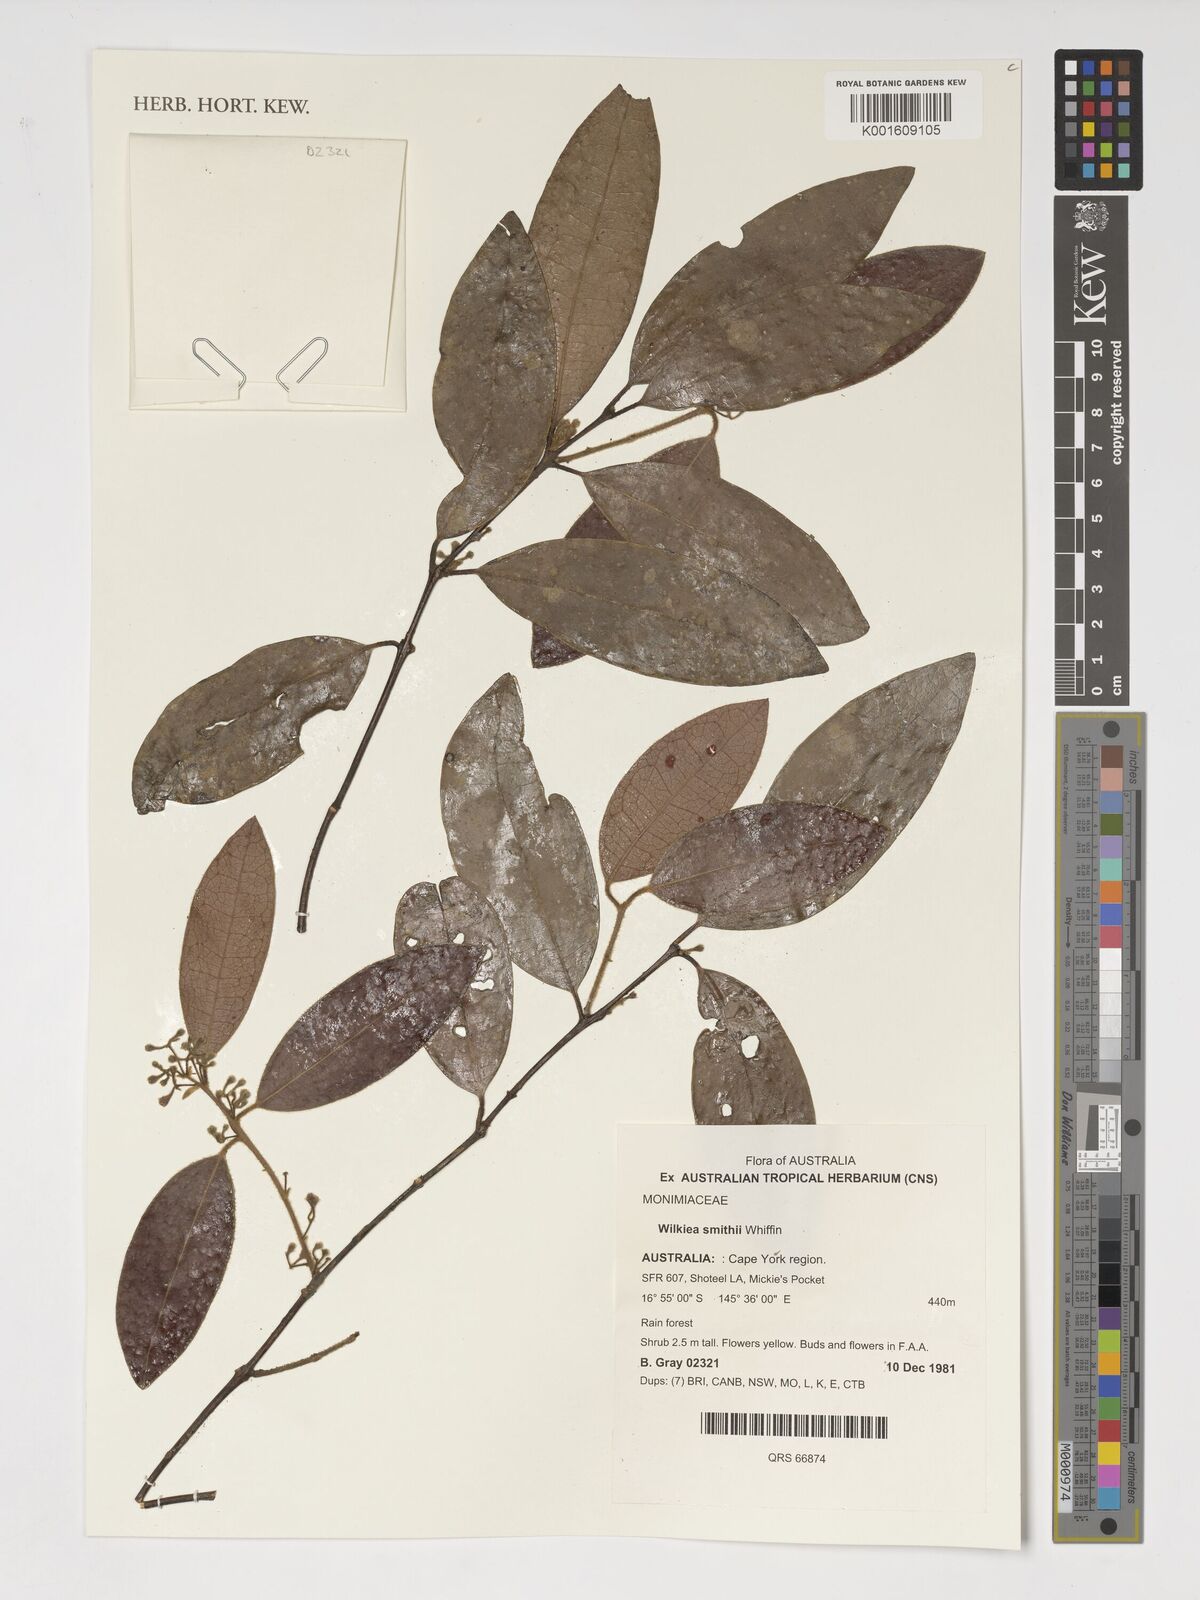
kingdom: Plantae
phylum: Tracheophyta
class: Magnoliopsida
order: Laurales
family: Monimiaceae
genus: Wilkiea
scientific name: Wilkiea smithii
